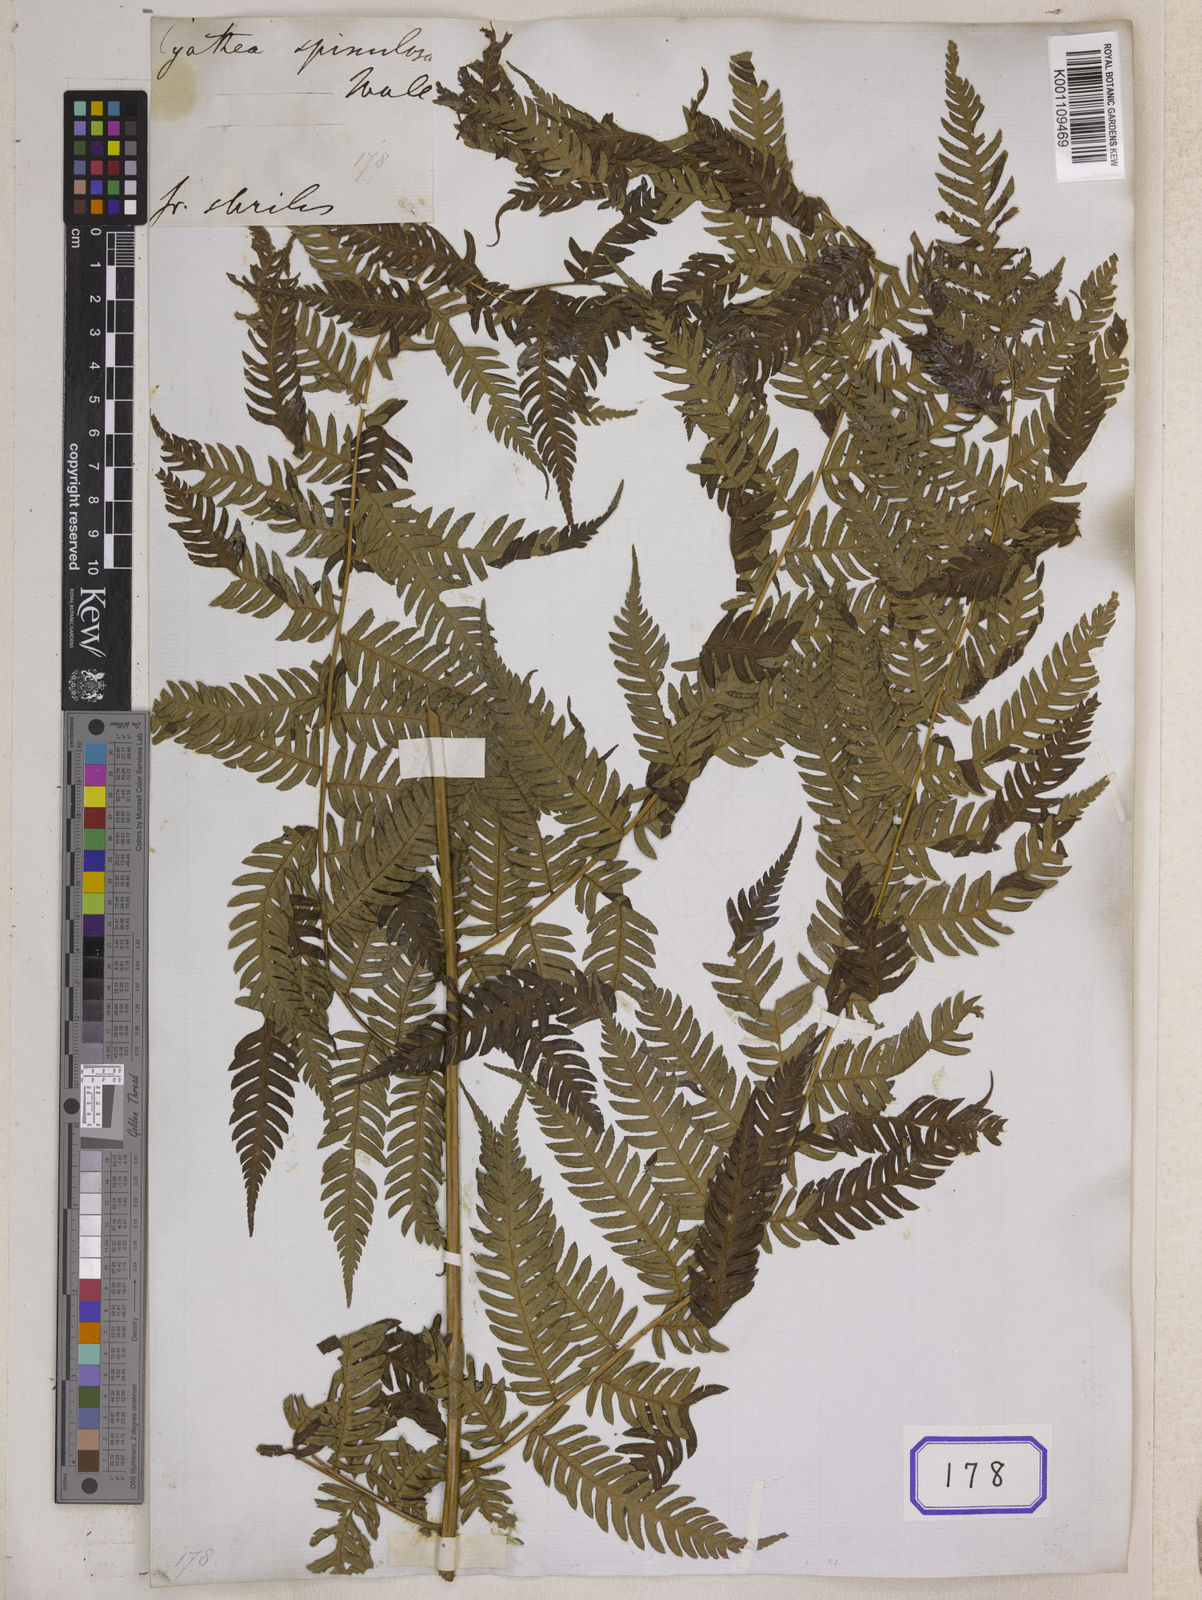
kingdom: Plantae
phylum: Tracheophyta
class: Polypodiopsida
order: Cyatheales
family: Cyatheaceae
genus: Cyathea
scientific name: Cyathea
